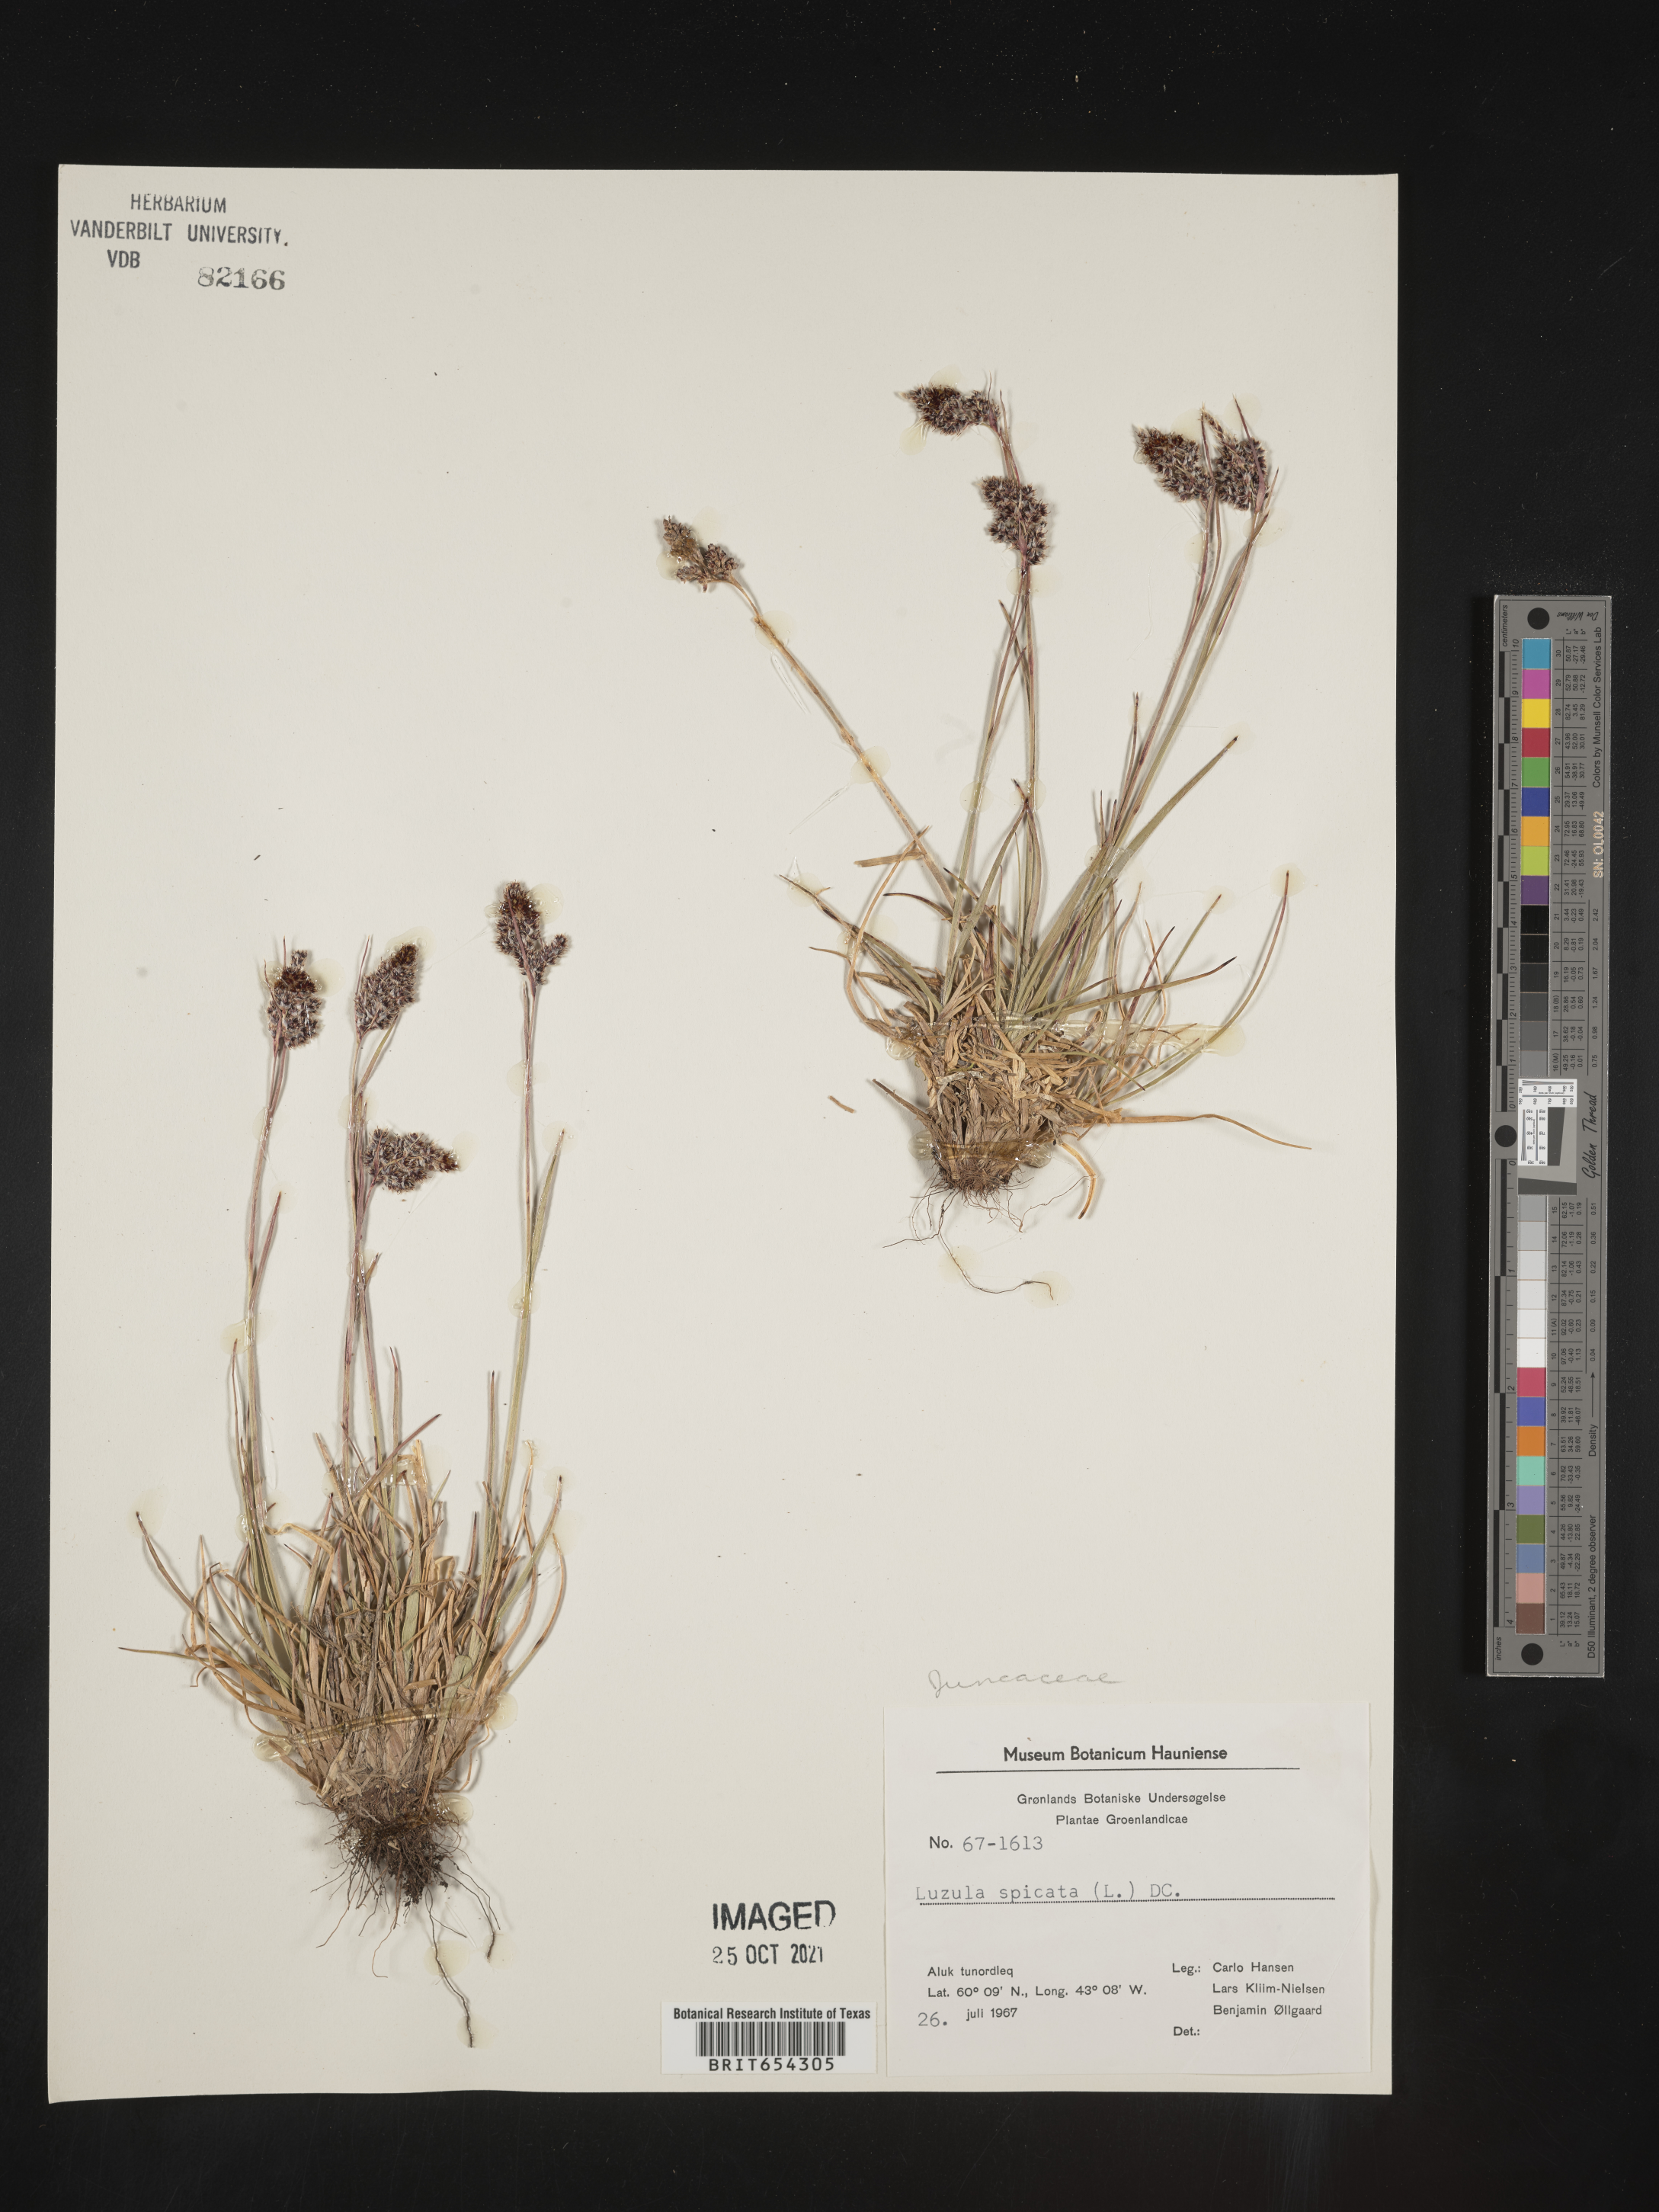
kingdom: Plantae
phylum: Tracheophyta
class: Liliopsida
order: Poales
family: Juncaceae
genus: Luzula
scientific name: Luzula
